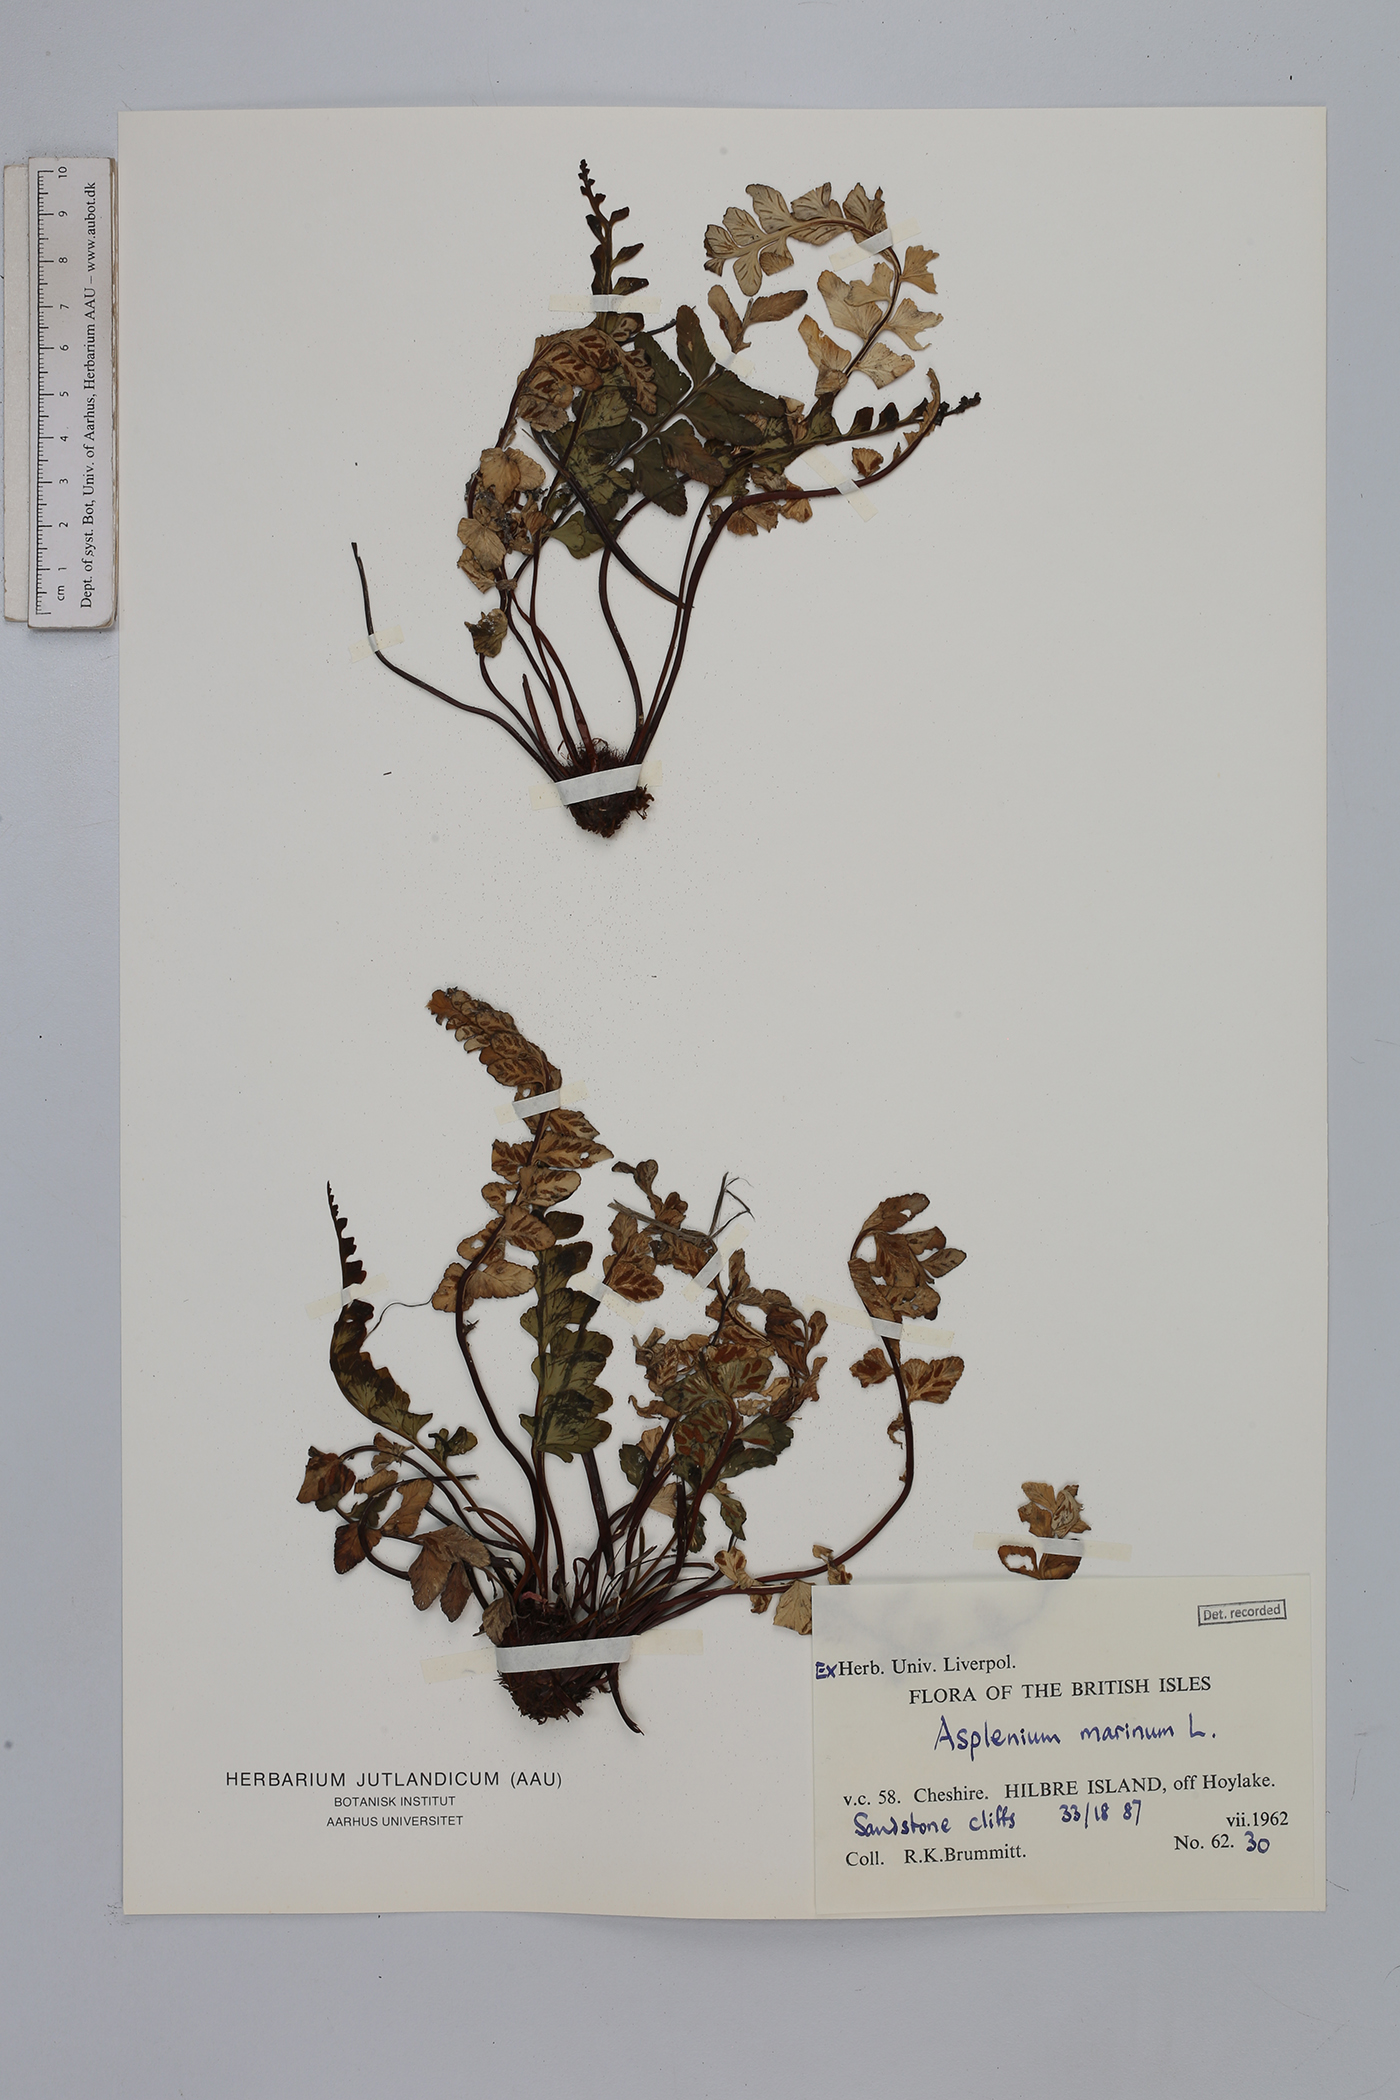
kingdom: Plantae
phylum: Tracheophyta
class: Polypodiopsida
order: Polypodiales
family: Aspleniaceae
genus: Asplenium
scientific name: Asplenium marinum
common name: Sea spleenwort
